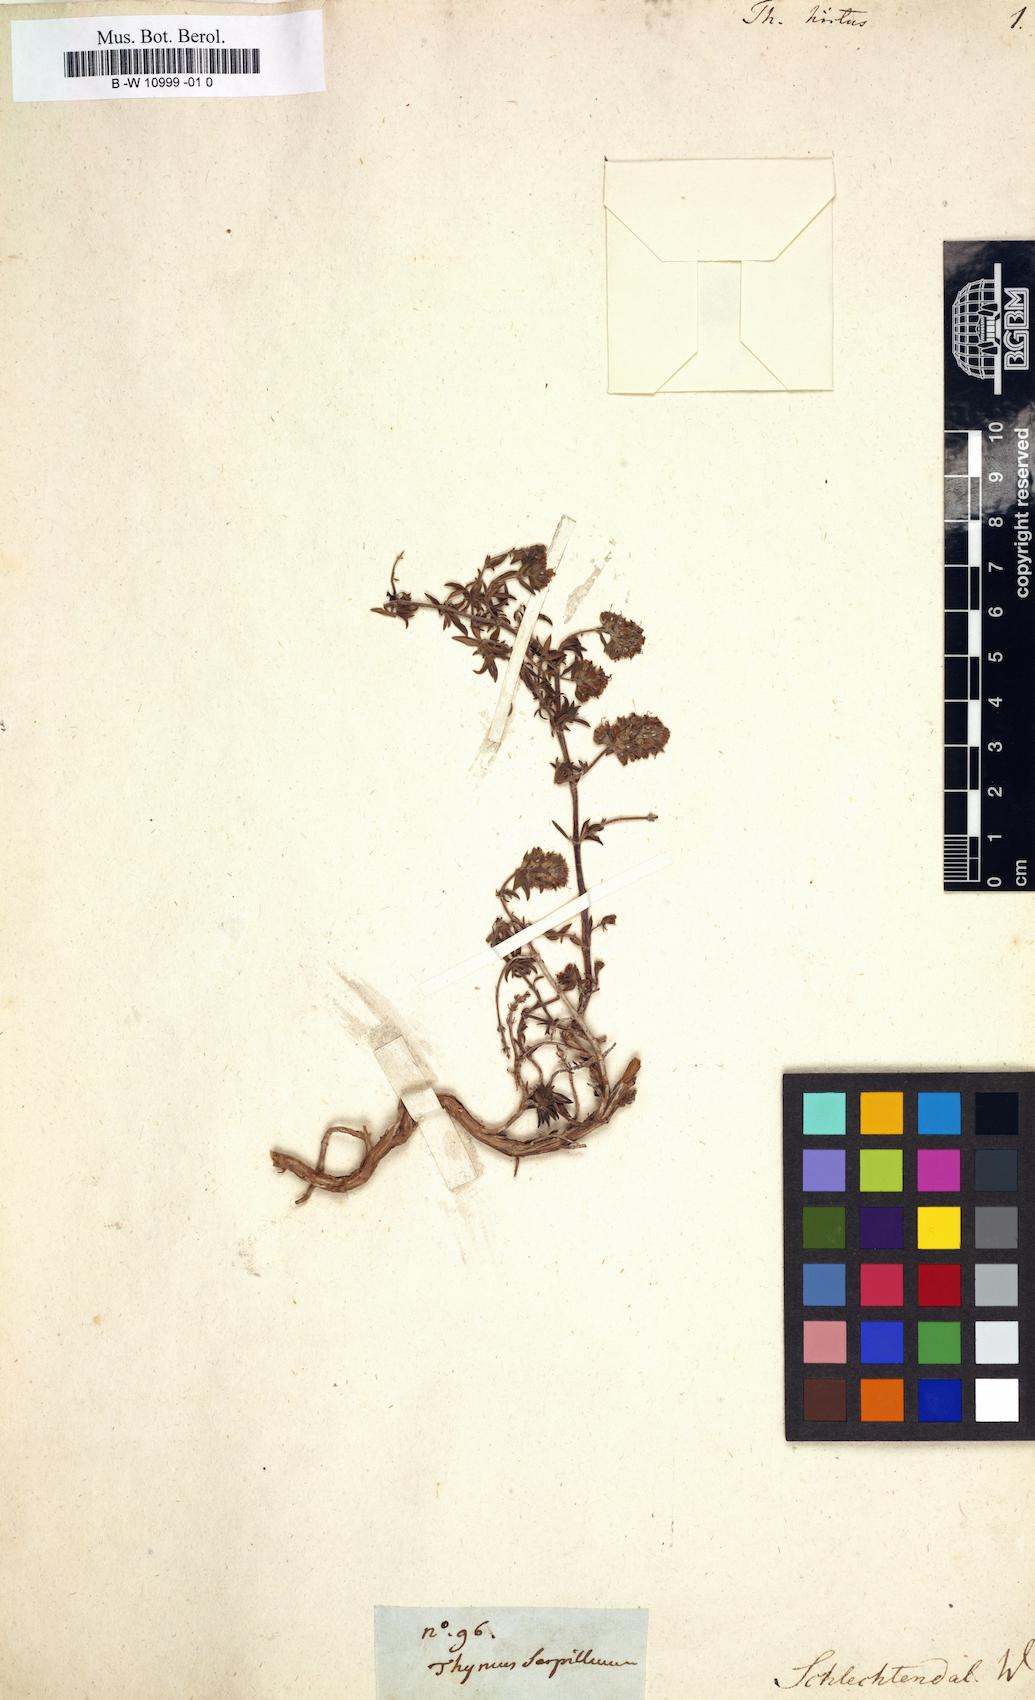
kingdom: Plantae
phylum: Tracheophyta
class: Magnoliopsida
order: Lamiales
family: Lamiaceae
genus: Thymus
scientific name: Thymus hirtus
